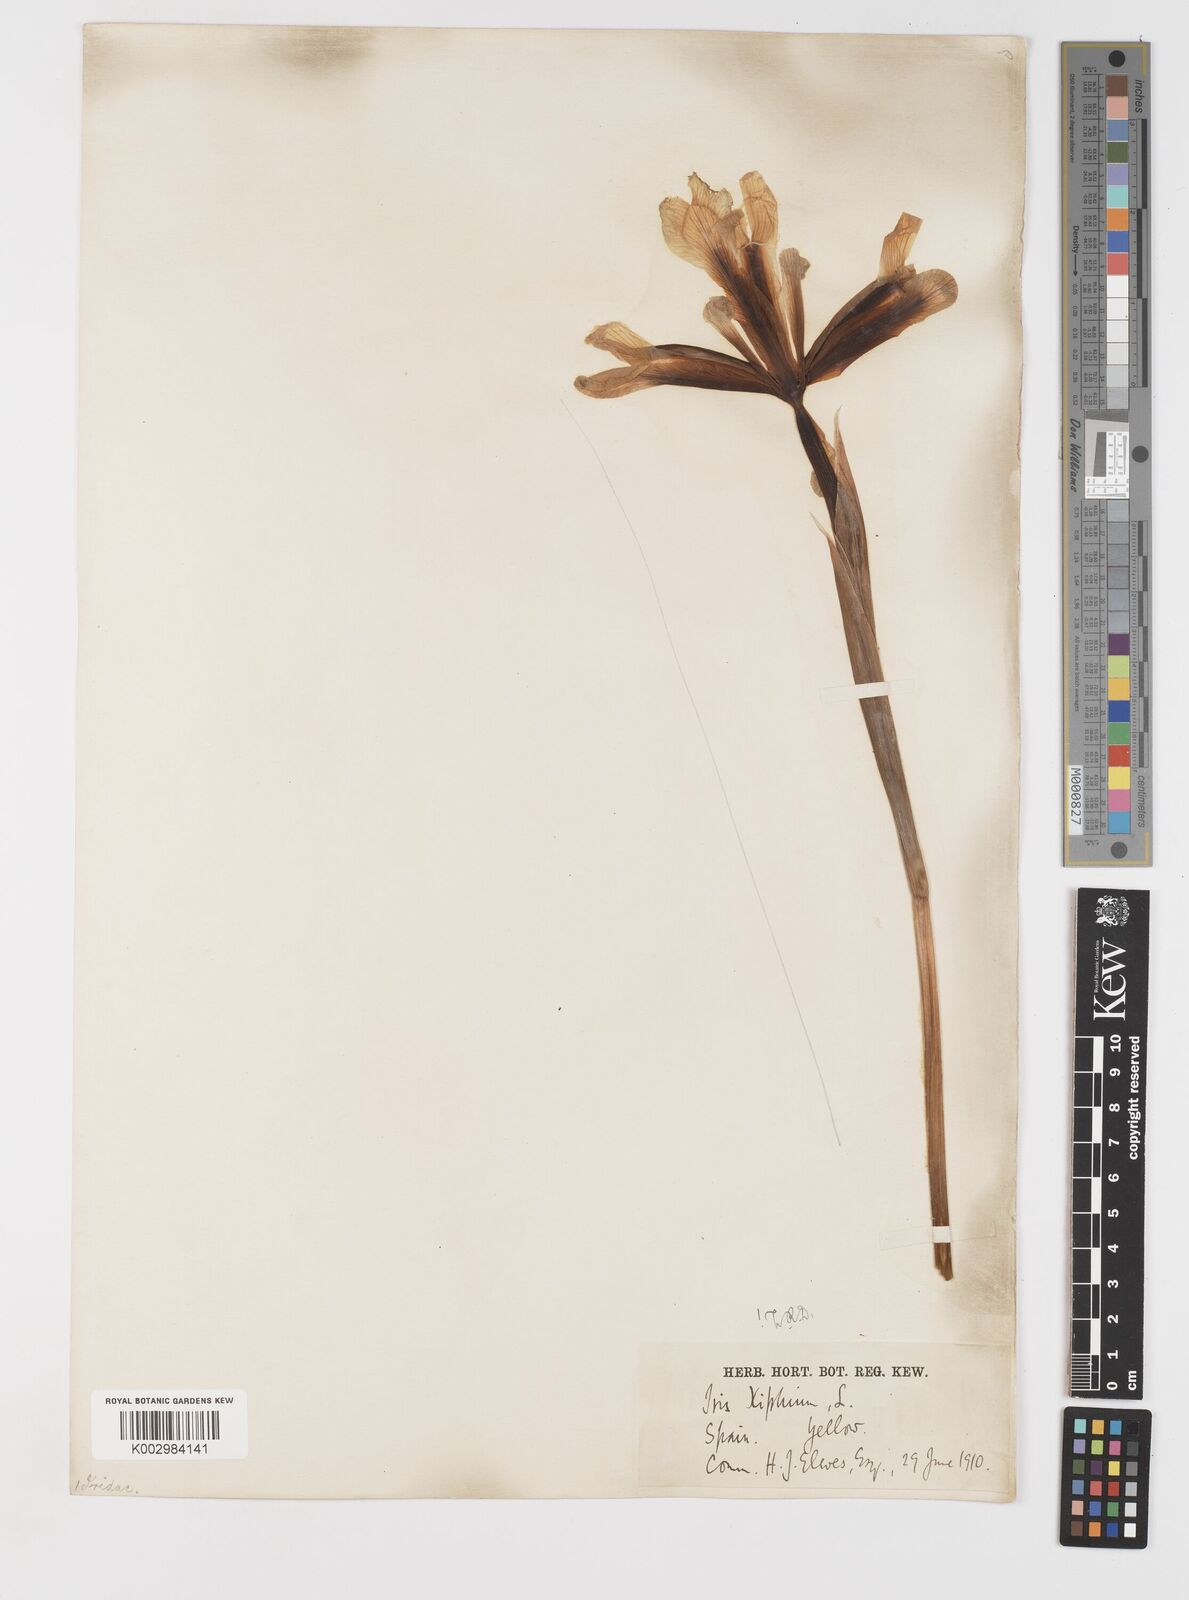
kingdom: Plantae
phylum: Tracheophyta
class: Liliopsida
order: Asparagales
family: Iridaceae
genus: Iris
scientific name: Iris xiphium
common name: Spanish iris
